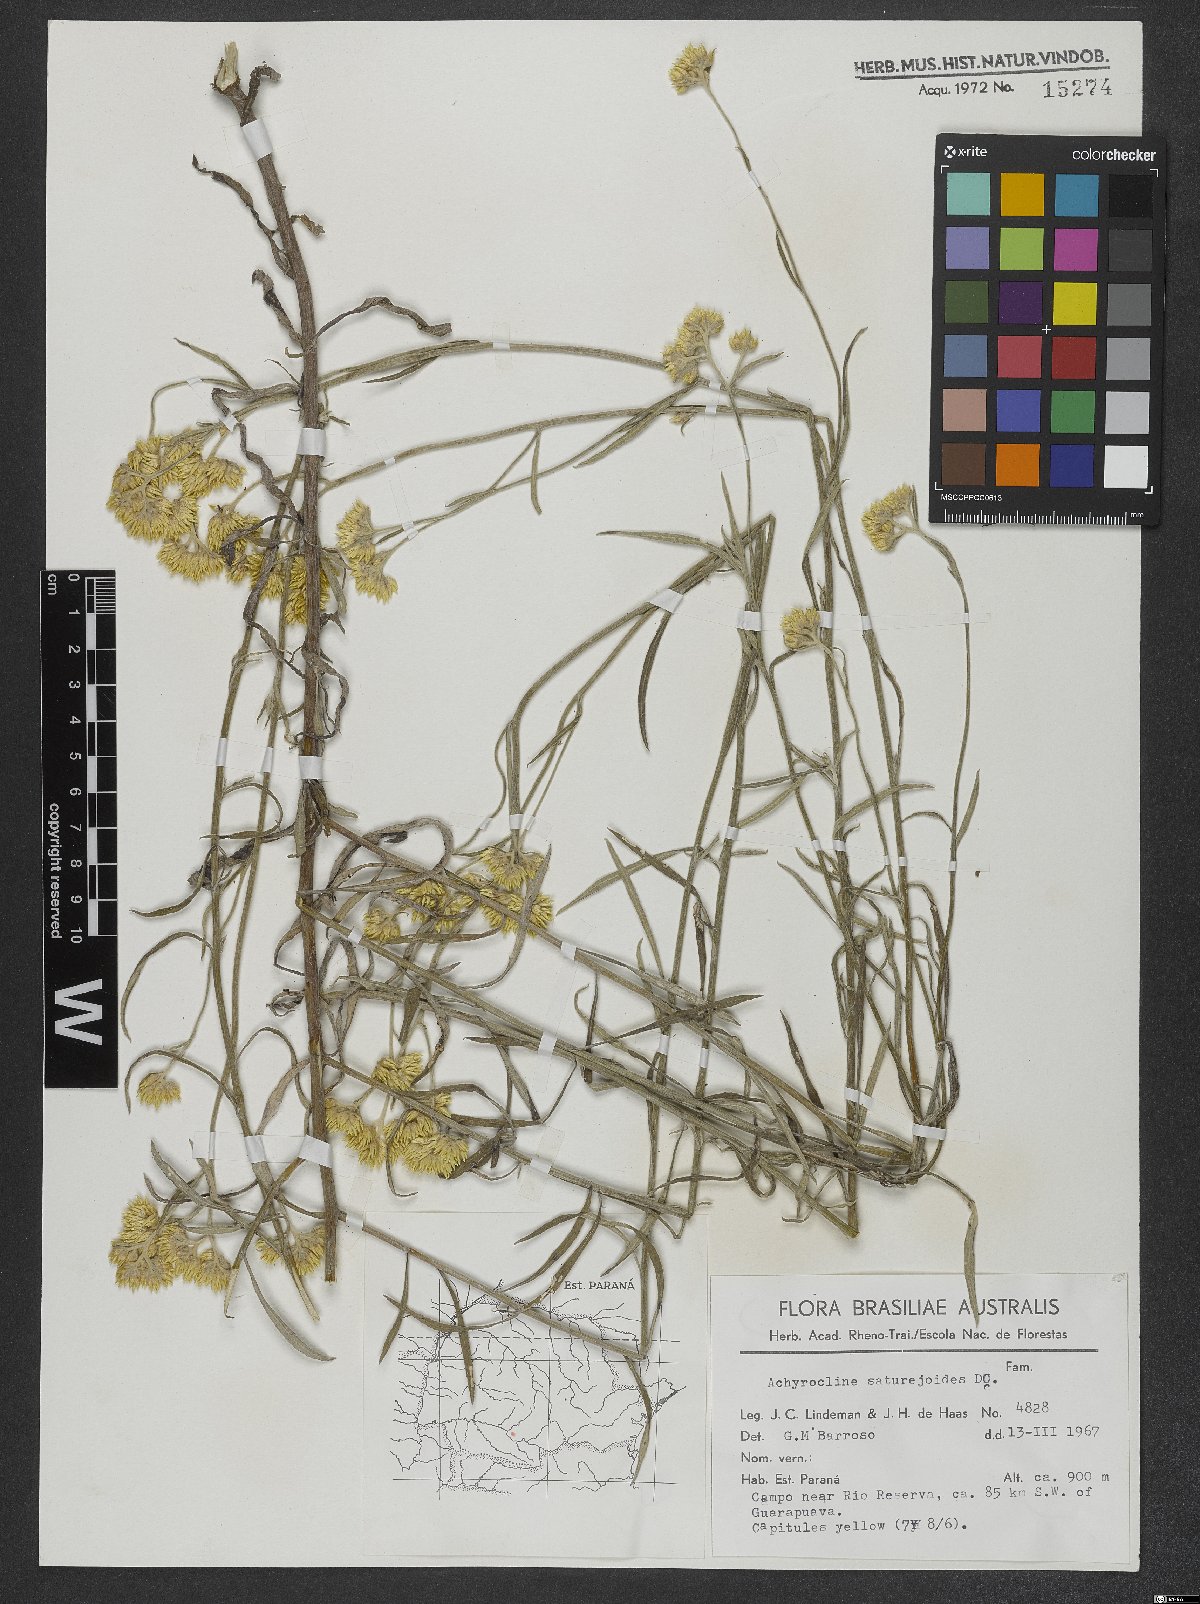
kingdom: Plantae
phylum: Tracheophyta
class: Magnoliopsida
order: Asterales
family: Asteraceae
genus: Achyrocline
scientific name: Achyrocline satureioides
